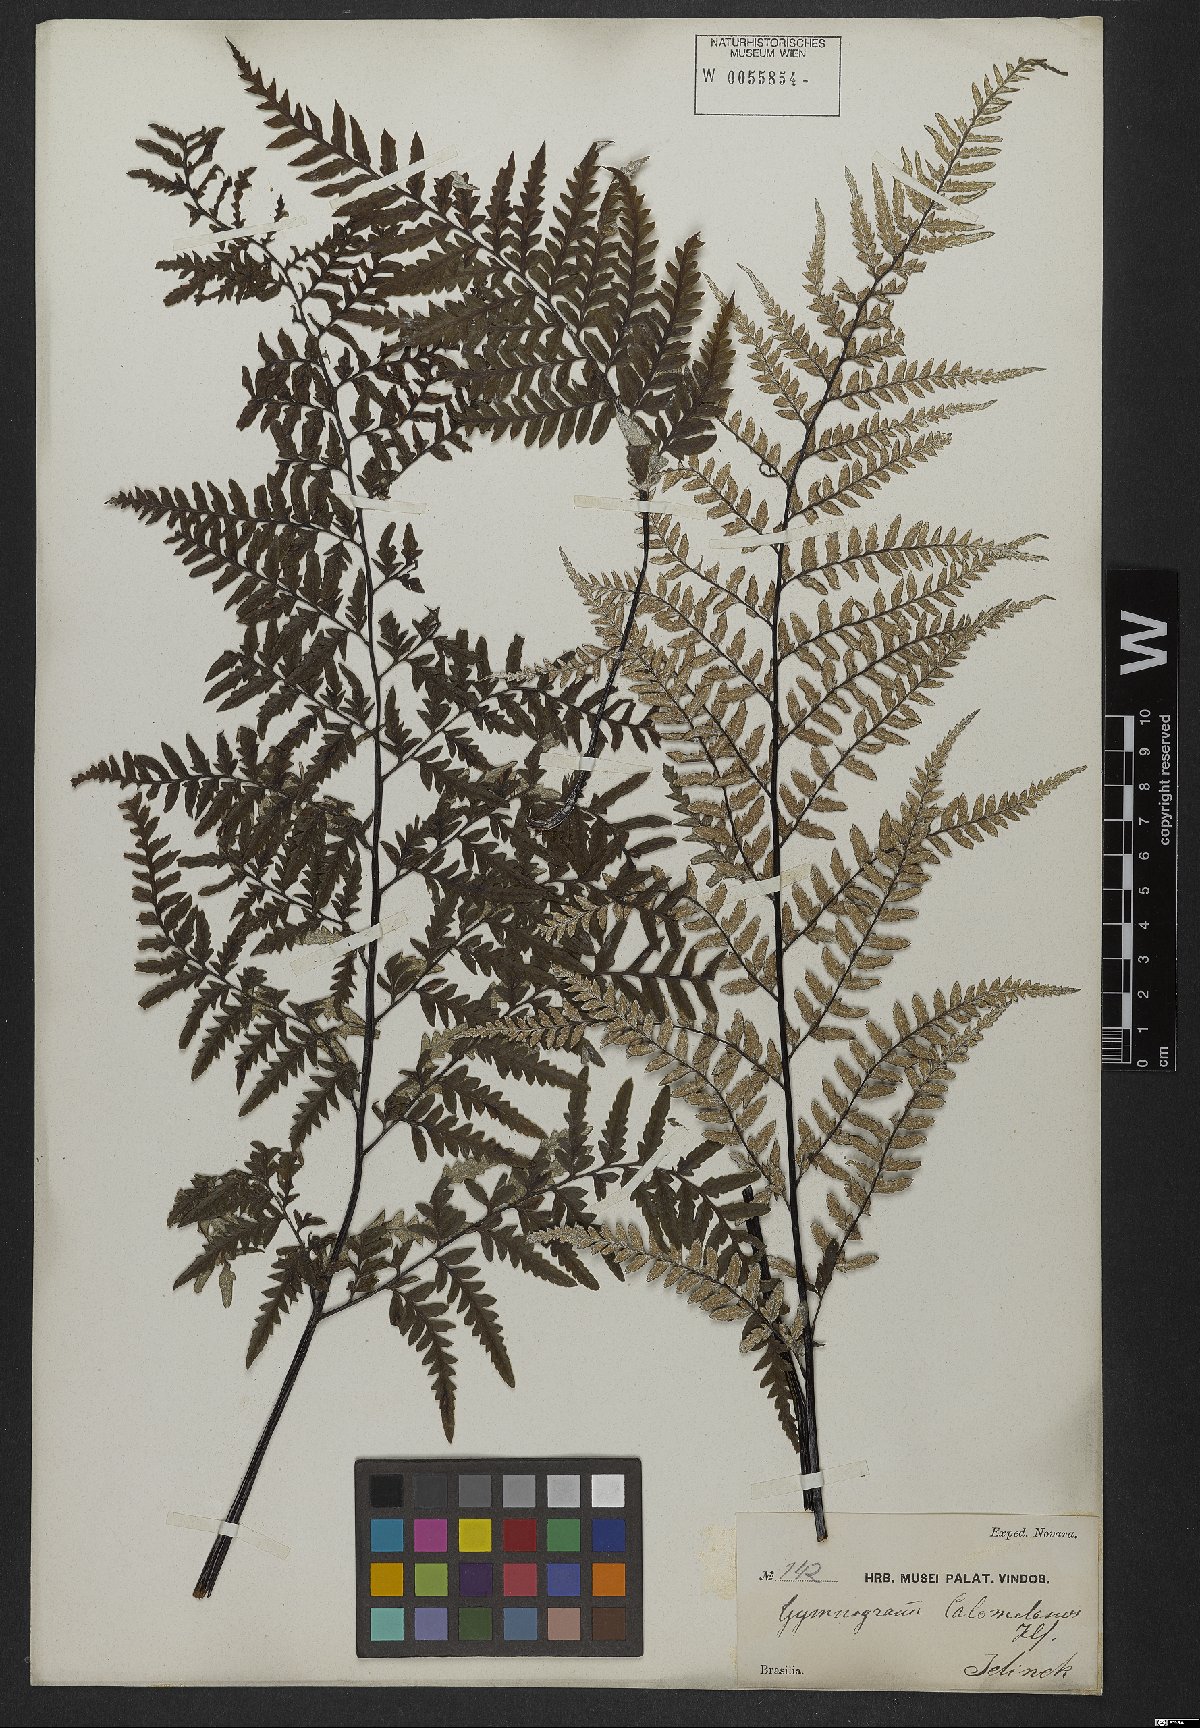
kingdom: Plantae
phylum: Tracheophyta
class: Polypodiopsida
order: Polypodiales
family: Pteridaceae
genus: Pityrogramma
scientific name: Pityrogramma calomelanos
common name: Dixie silverback fern
